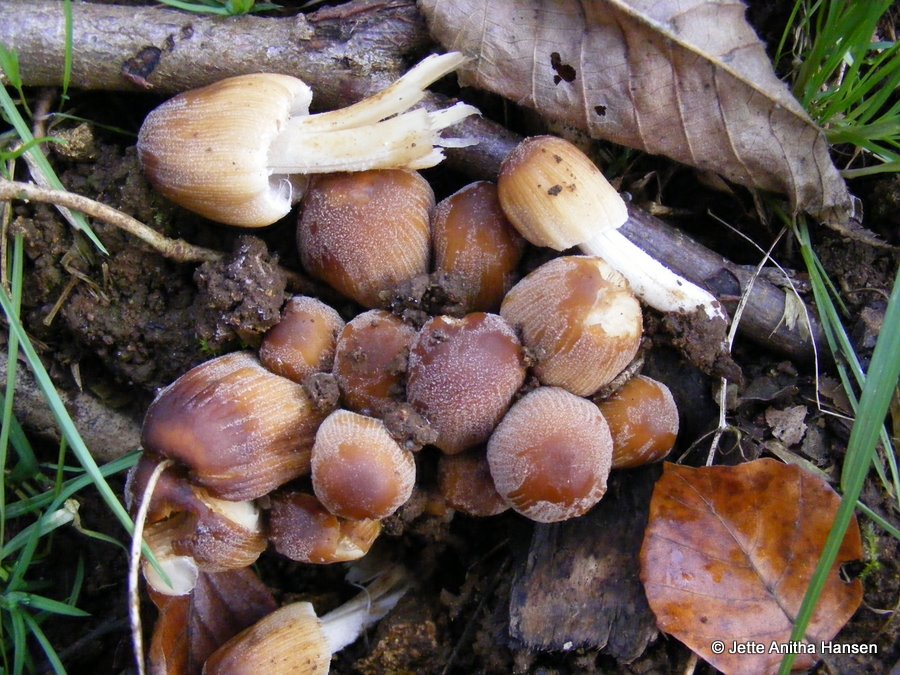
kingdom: Fungi
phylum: Basidiomycota
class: Agaricomycetes
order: Agaricales
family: Psathyrellaceae
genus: Coprinellus
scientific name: Coprinellus micaceus
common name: glimmer-blækhat
